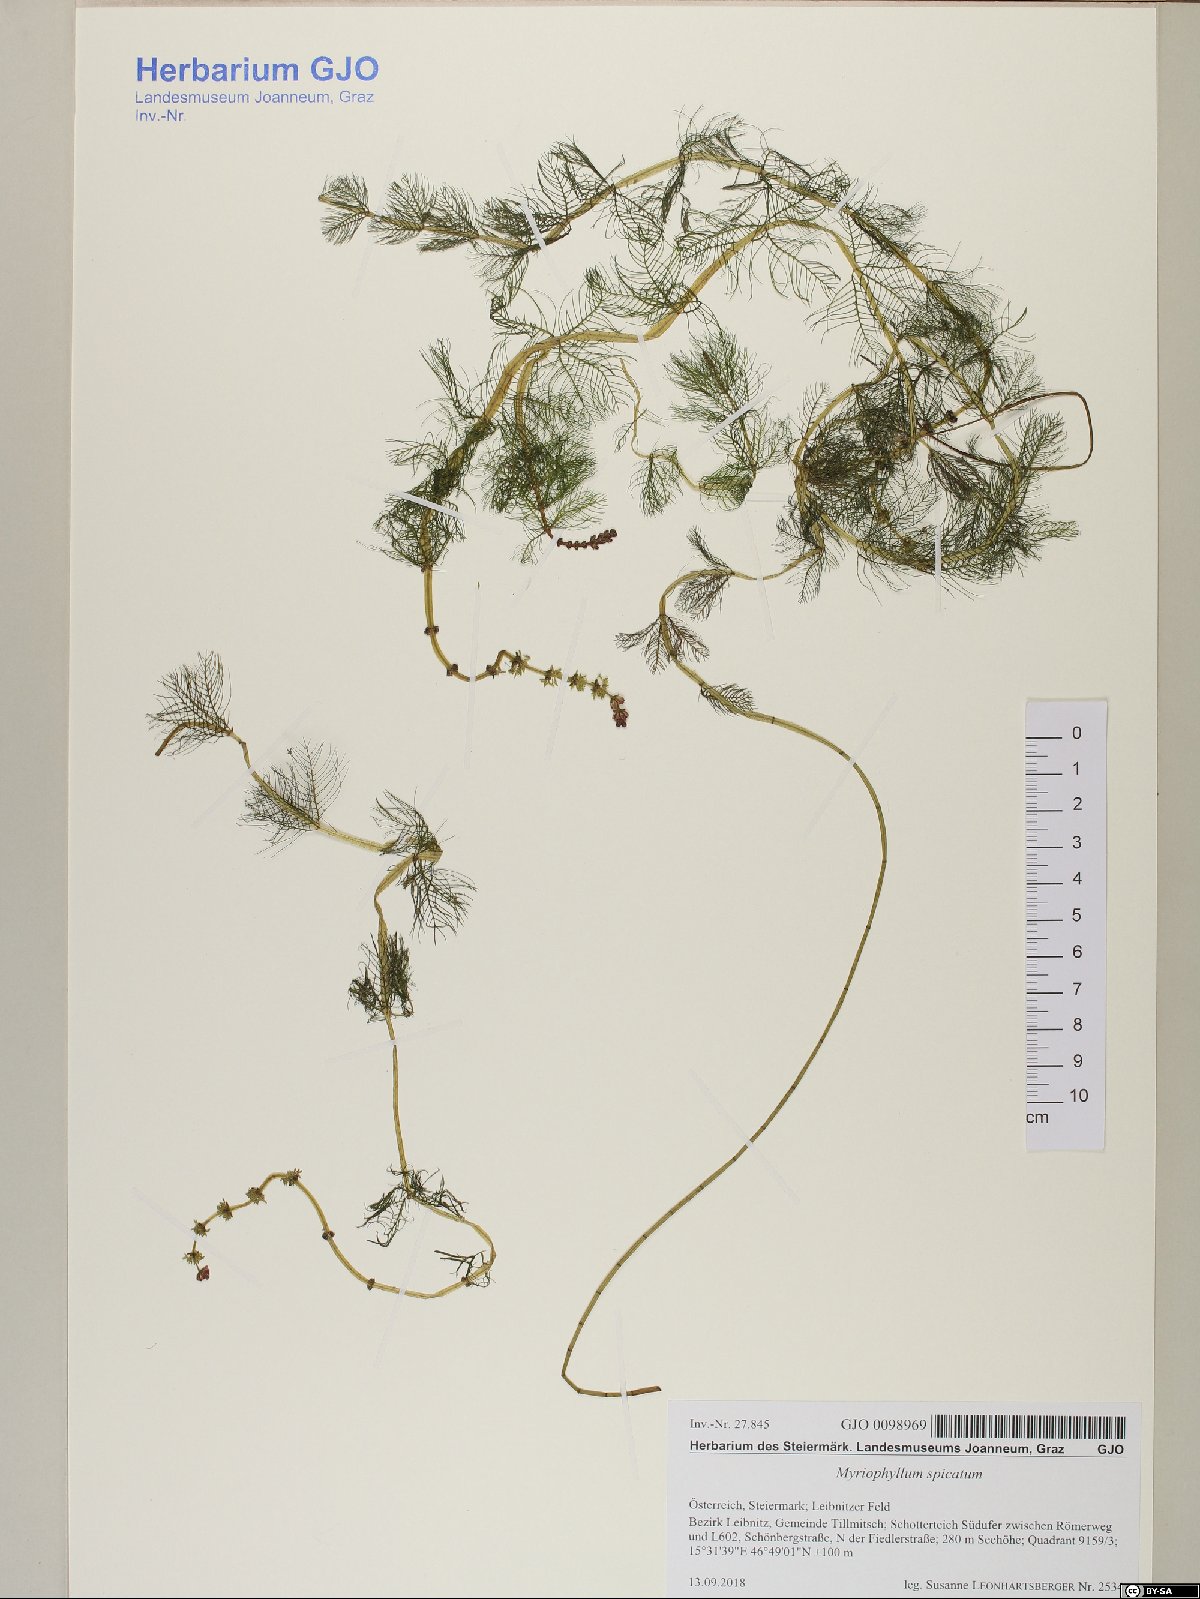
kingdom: Plantae
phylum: Tracheophyta
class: Magnoliopsida
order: Saxifragales
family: Haloragaceae
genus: Myriophyllum
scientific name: Myriophyllum spicatum
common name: Spiked water-milfoil
